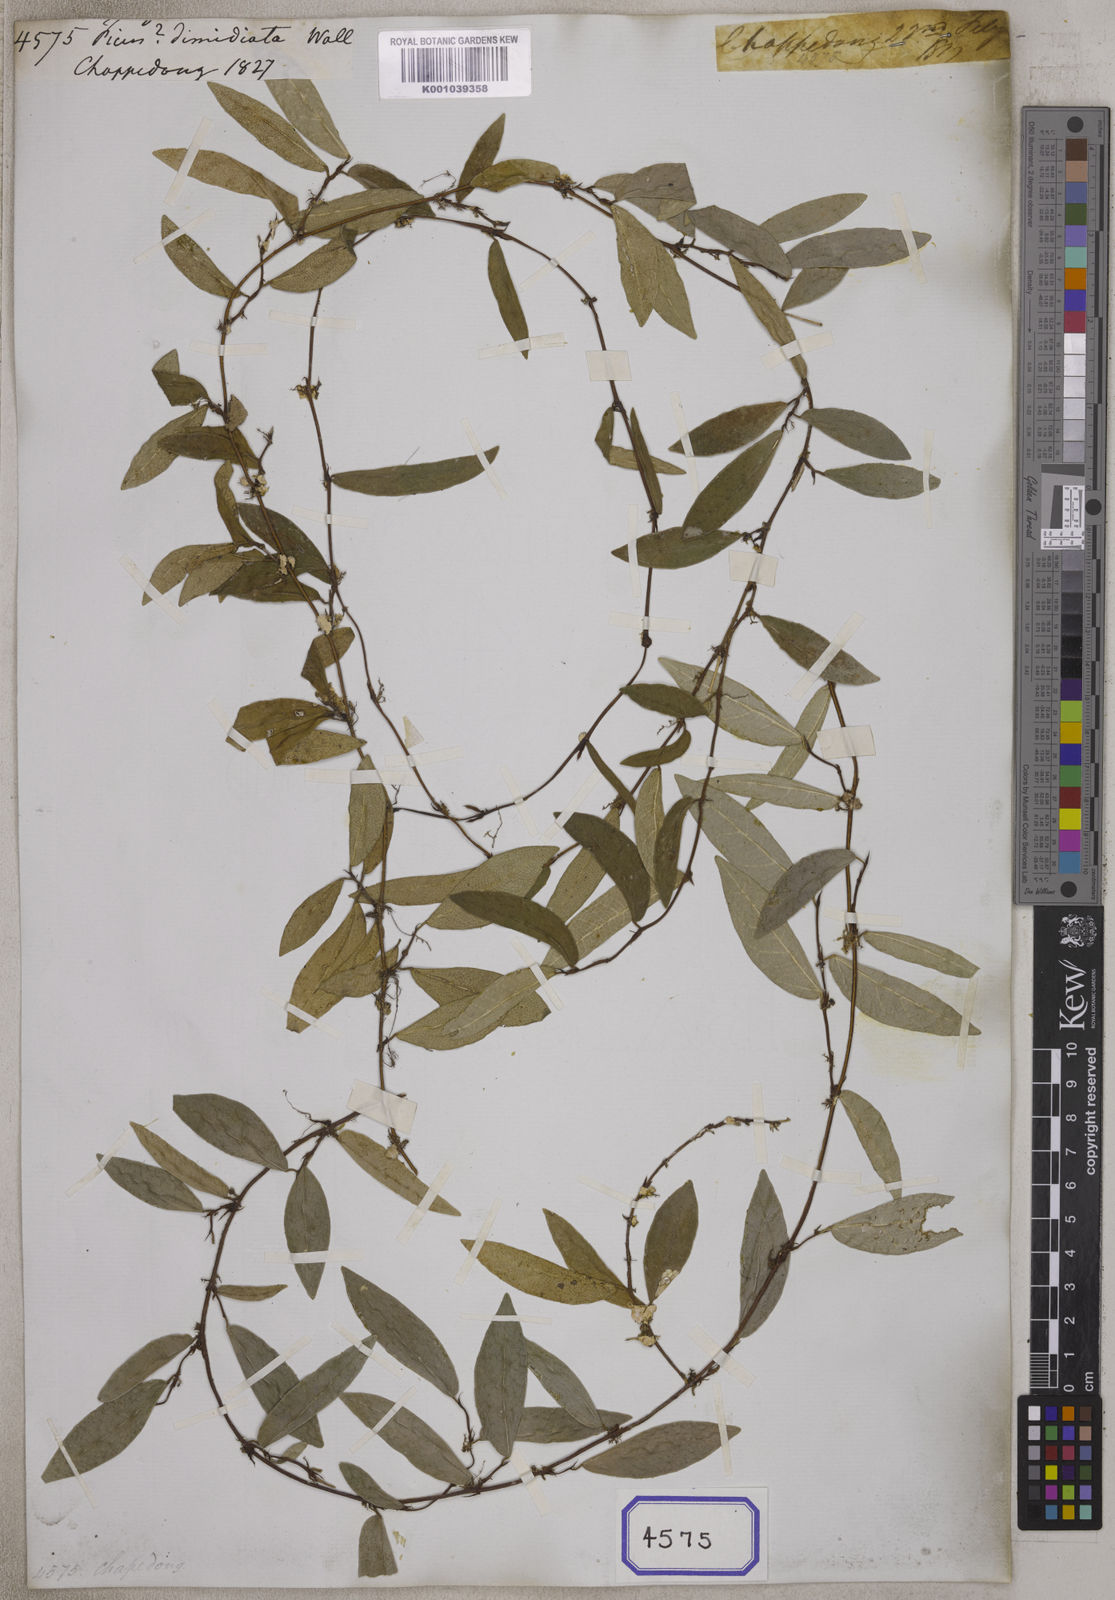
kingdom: Plantae
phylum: Tracheophyta
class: Magnoliopsida
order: Rosales
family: Moraceae
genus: Ficus
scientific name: Ficus
